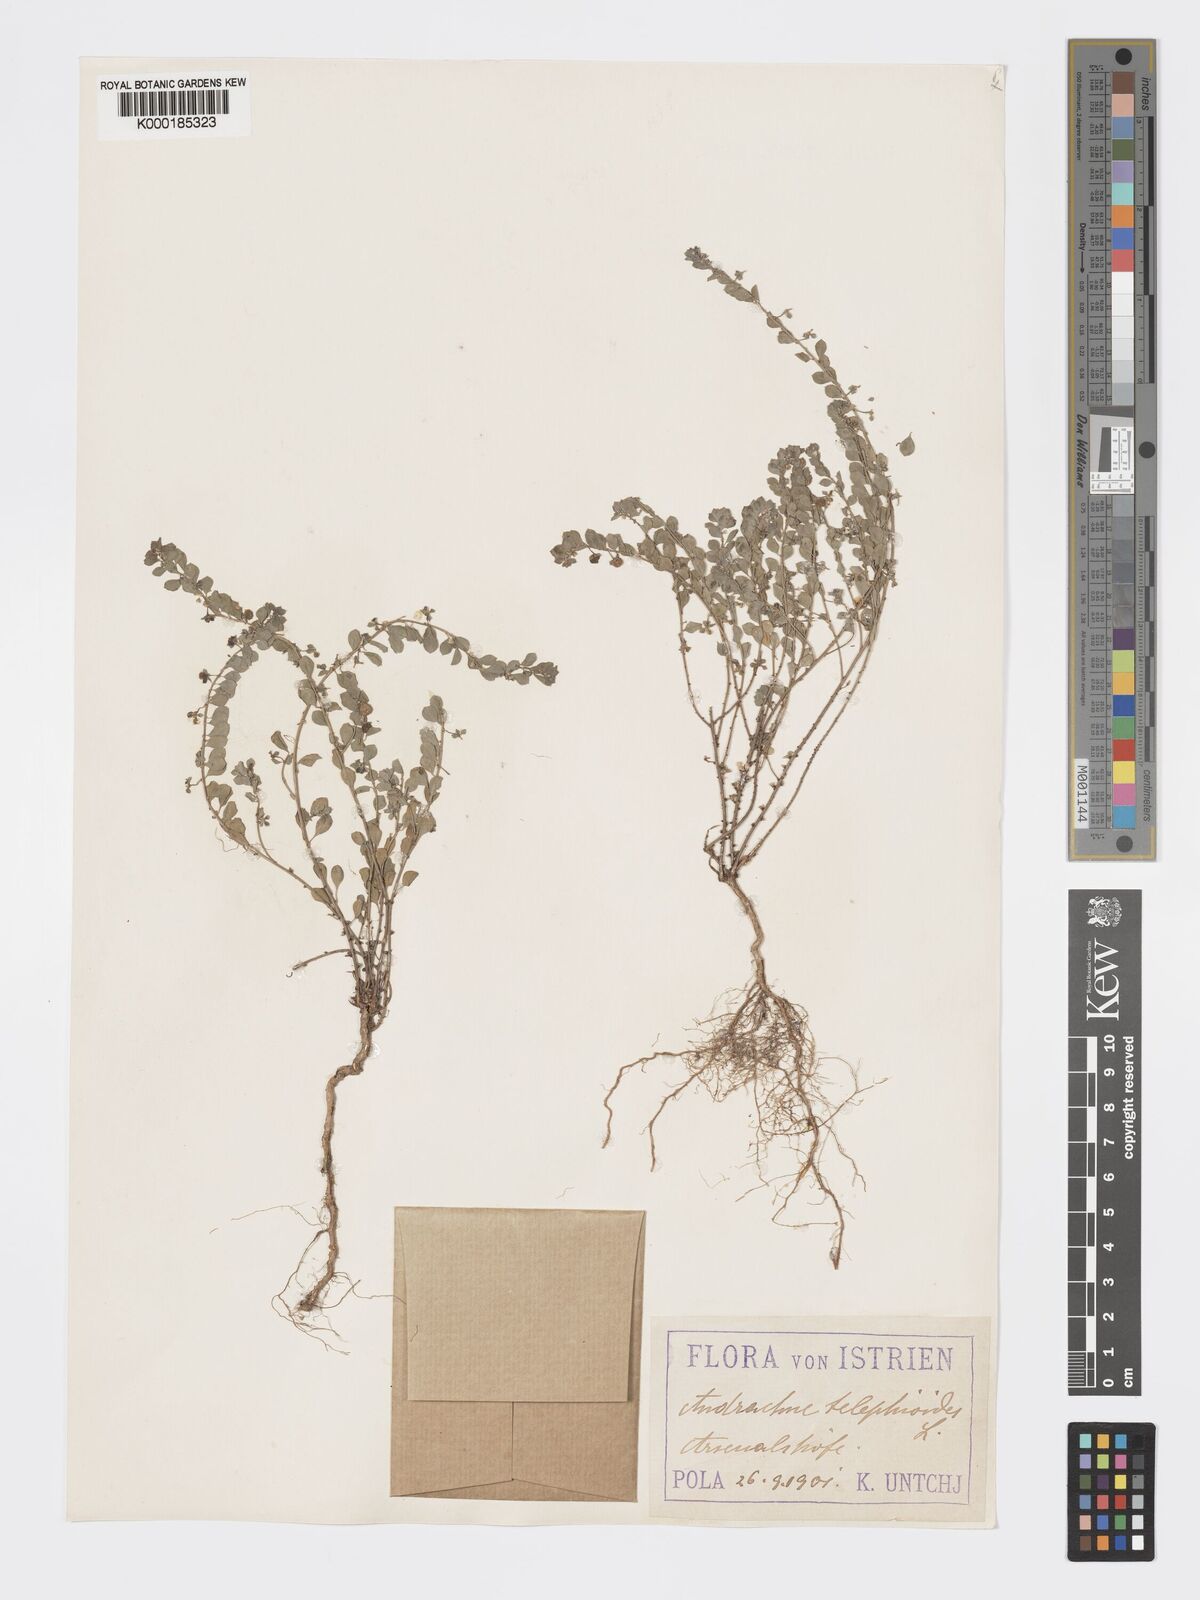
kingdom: Plantae
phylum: Tracheophyta
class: Magnoliopsida
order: Malpighiales
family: Phyllanthaceae
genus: Andrachne
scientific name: Andrachne telephioides
